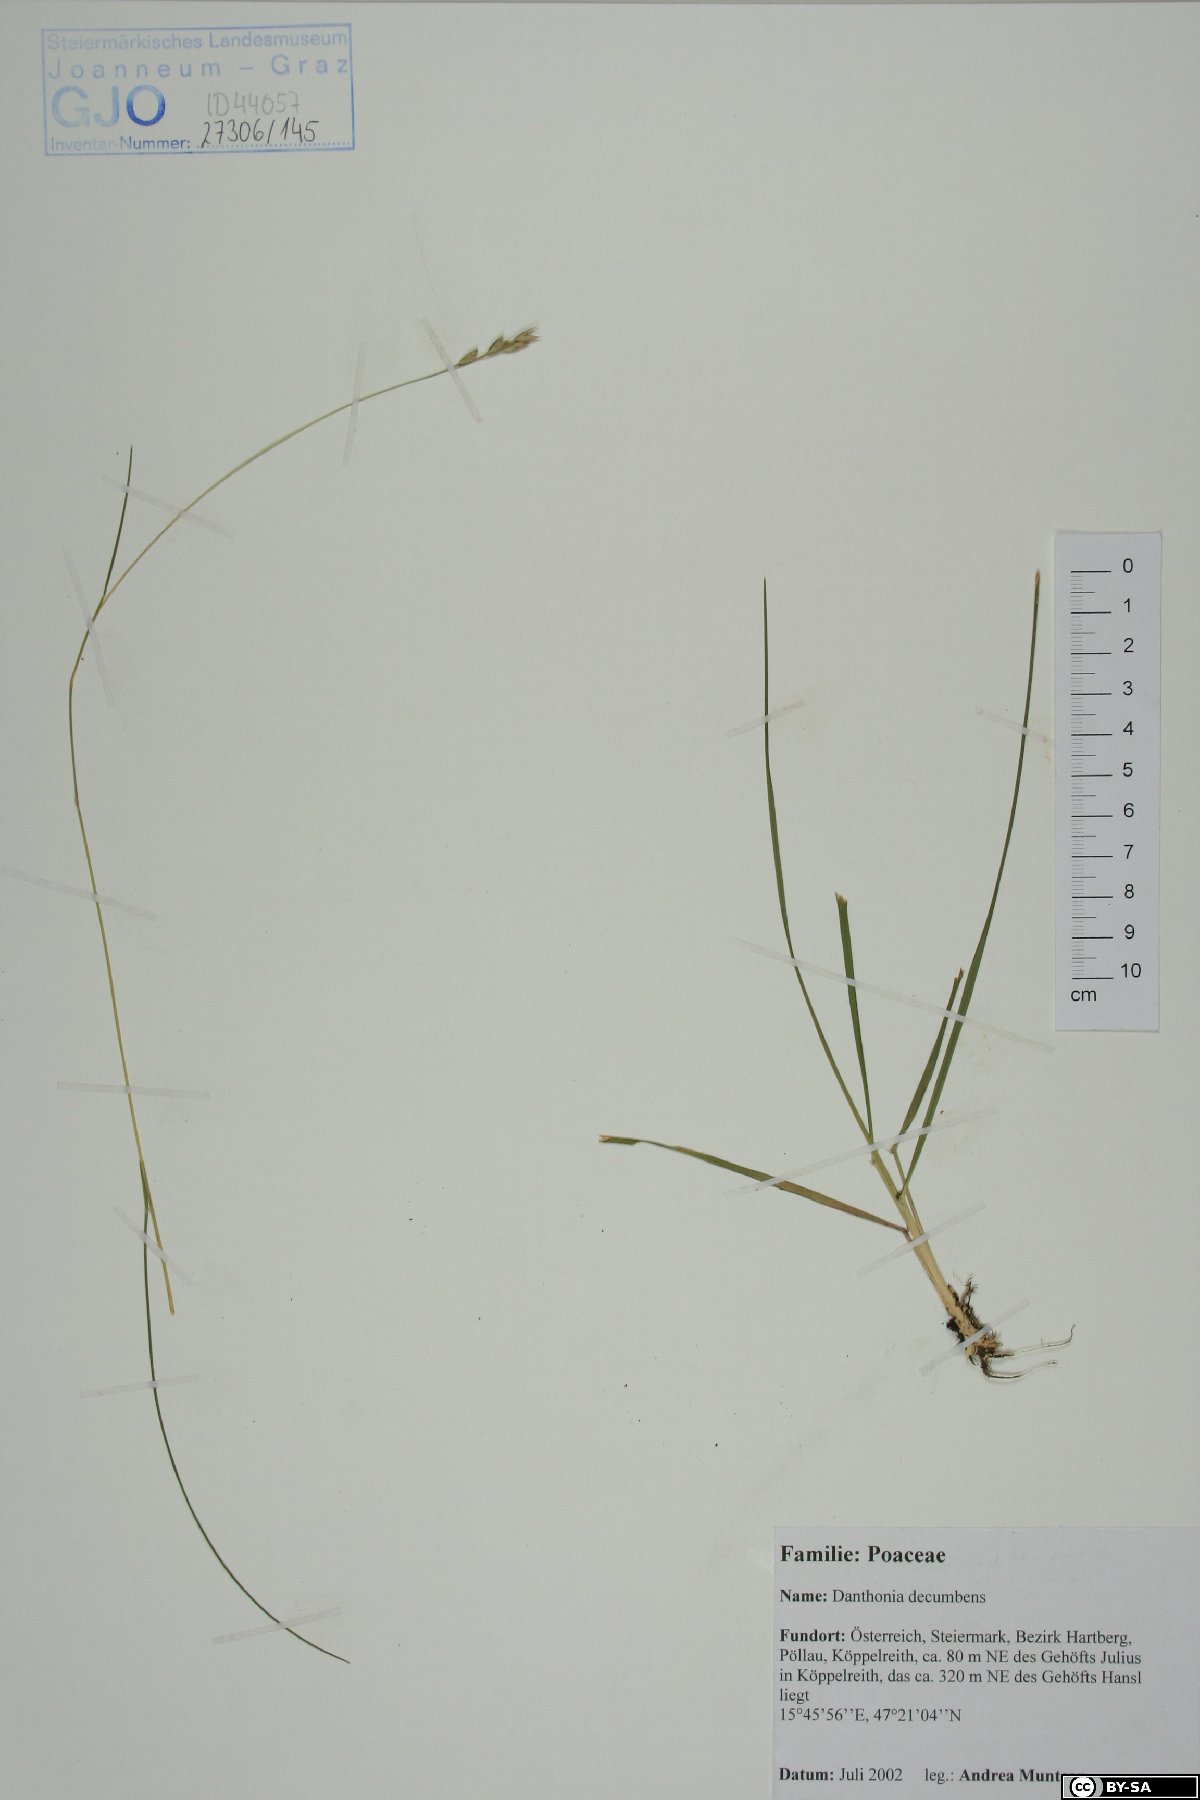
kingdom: Plantae
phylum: Tracheophyta
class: Liliopsida
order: Poales
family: Poaceae
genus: Danthonia
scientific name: Danthonia decumbens
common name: Common heathgrass
